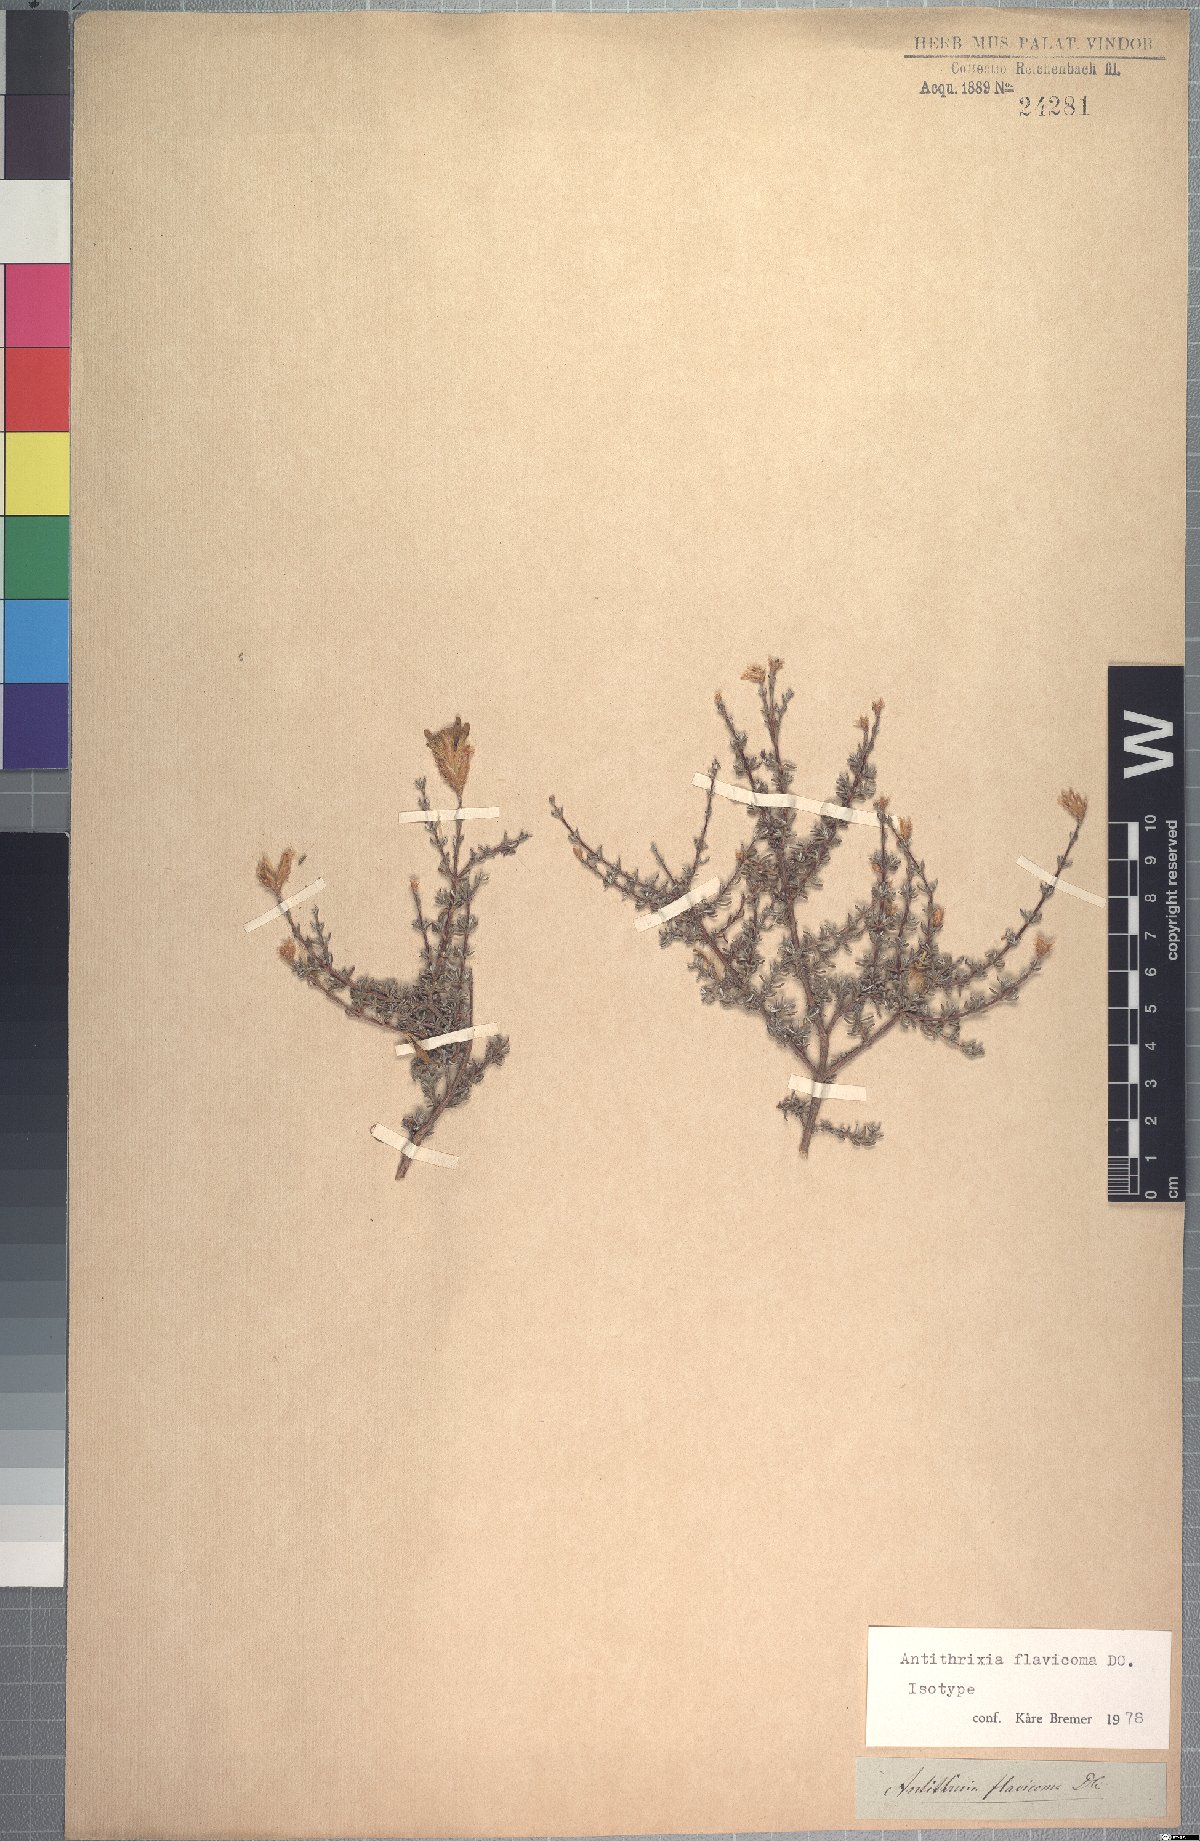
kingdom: Plantae
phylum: Tracheophyta
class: Magnoliopsida
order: Asterales
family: Asteraceae
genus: Oedera
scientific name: Oedera flavicoma
